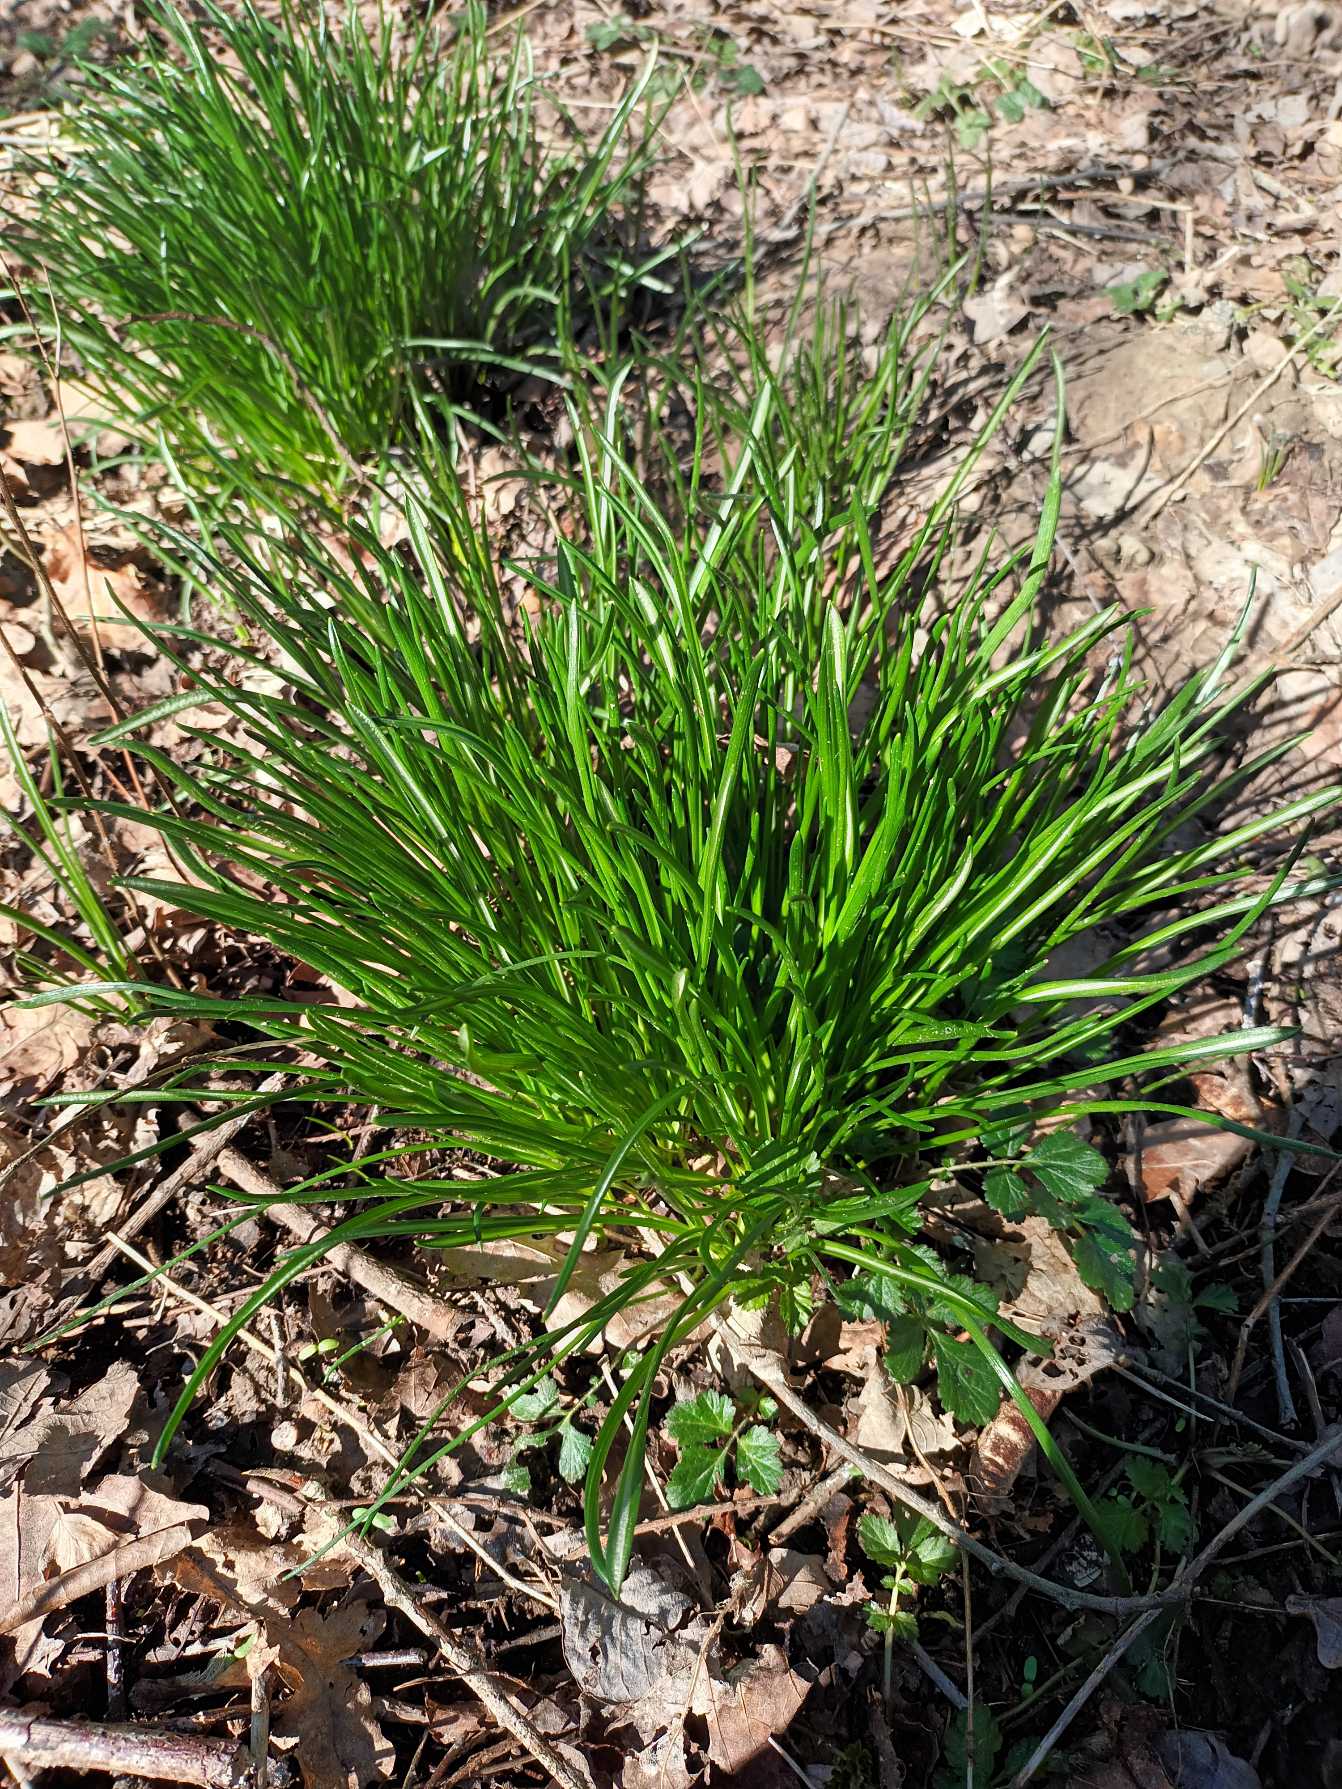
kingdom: Plantae
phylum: Tracheophyta
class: Liliopsida
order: Asparagales
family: Asparagaceae
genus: Ornithogalum
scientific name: Ornithogalum umbellatum
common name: Kost-fuglemælk
